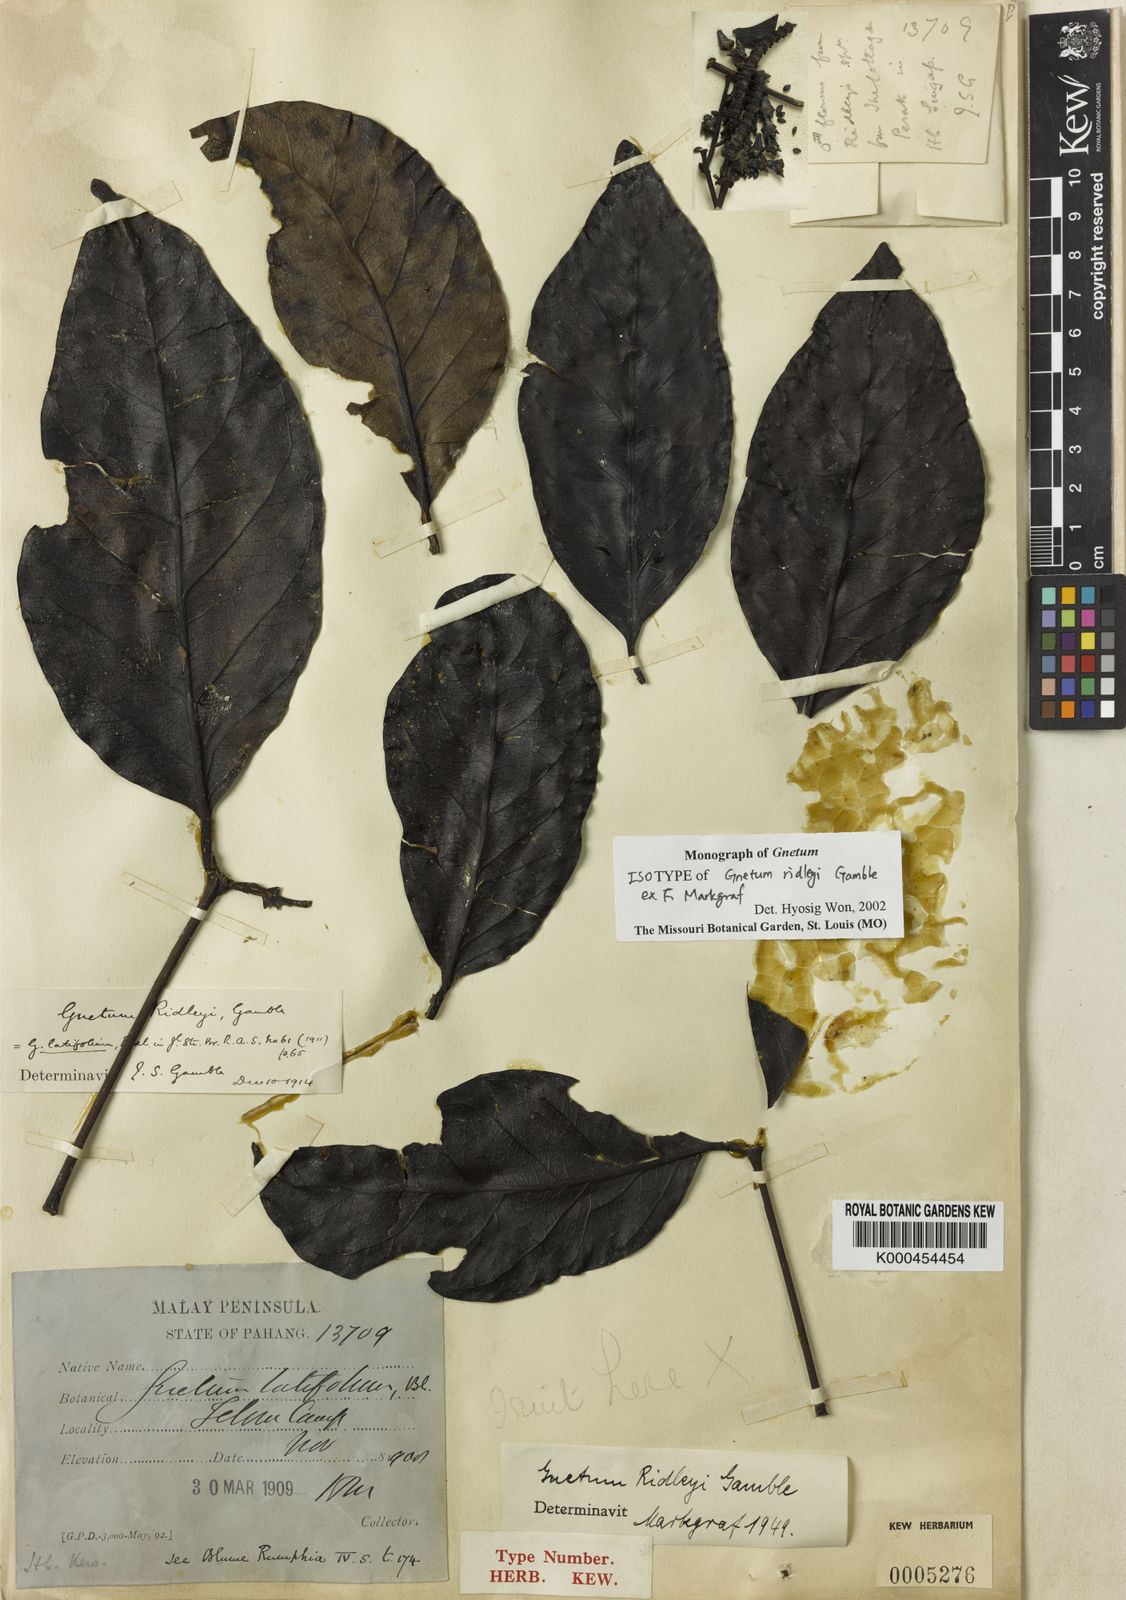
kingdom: Plantae
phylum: Tracheophyta
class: Gnetopsida
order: Gnetales
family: Gnetaceae
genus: Gnetum
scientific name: Gnetum ridleyi
